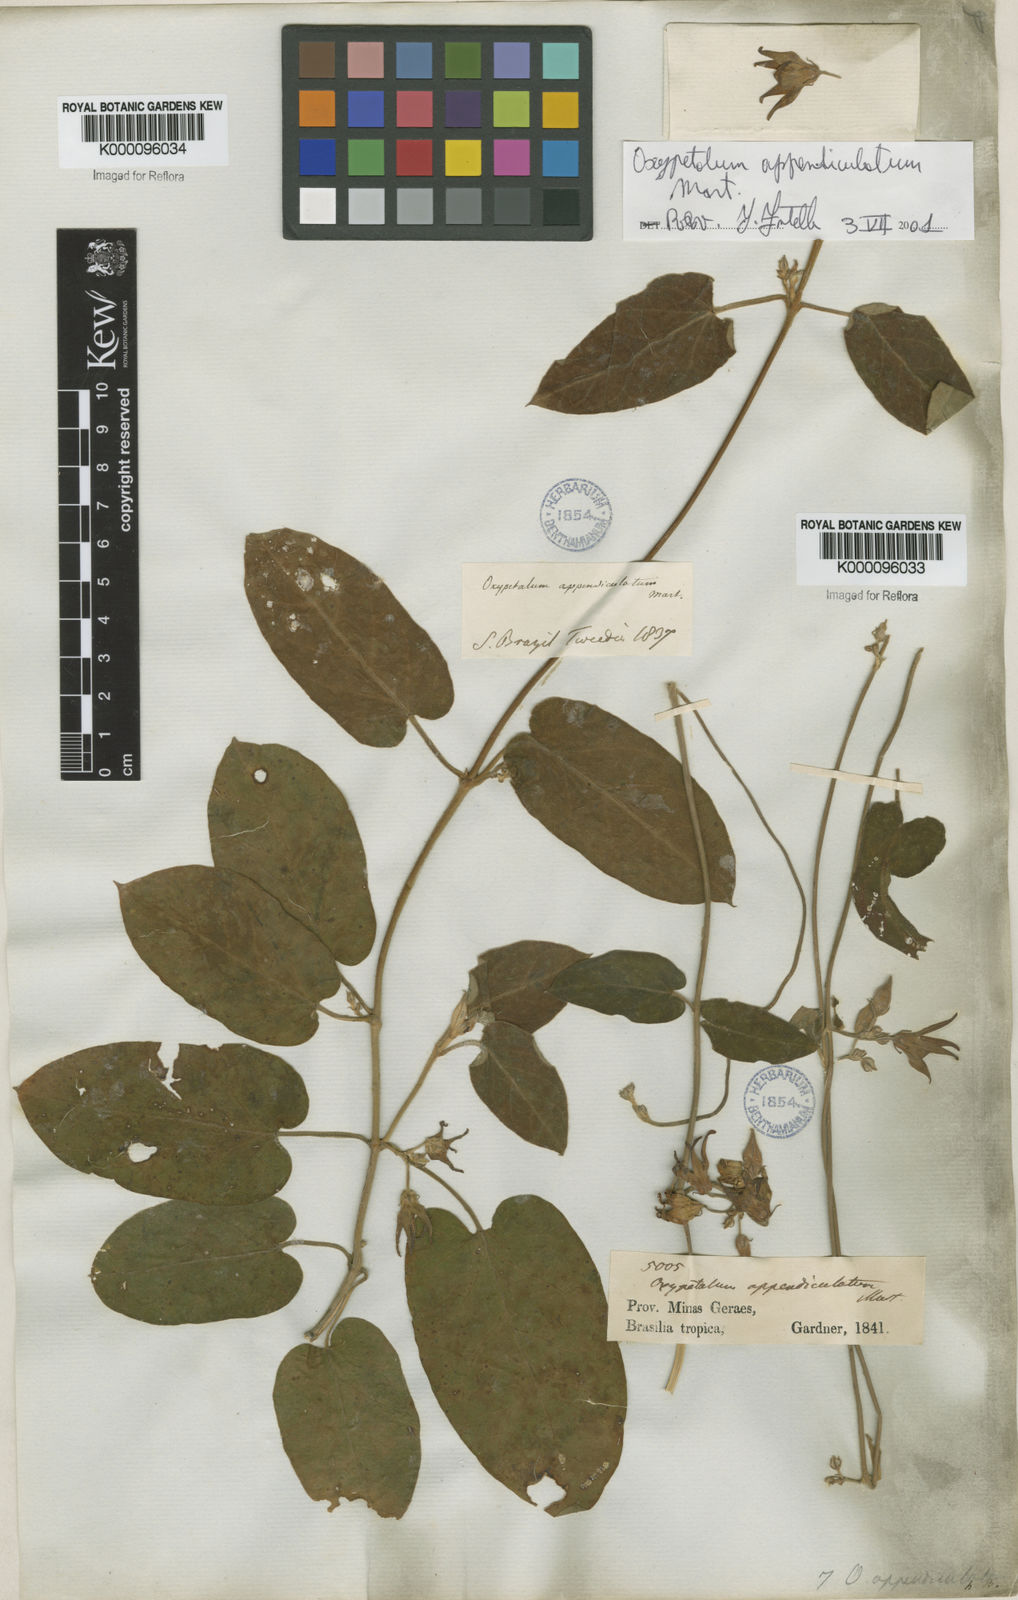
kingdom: Plantae
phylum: Tracheophyta
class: Magnoliopsida
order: Gentianales
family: Apocynaceae
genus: Oxypetalum
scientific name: Oxypetalum appendiculatum
